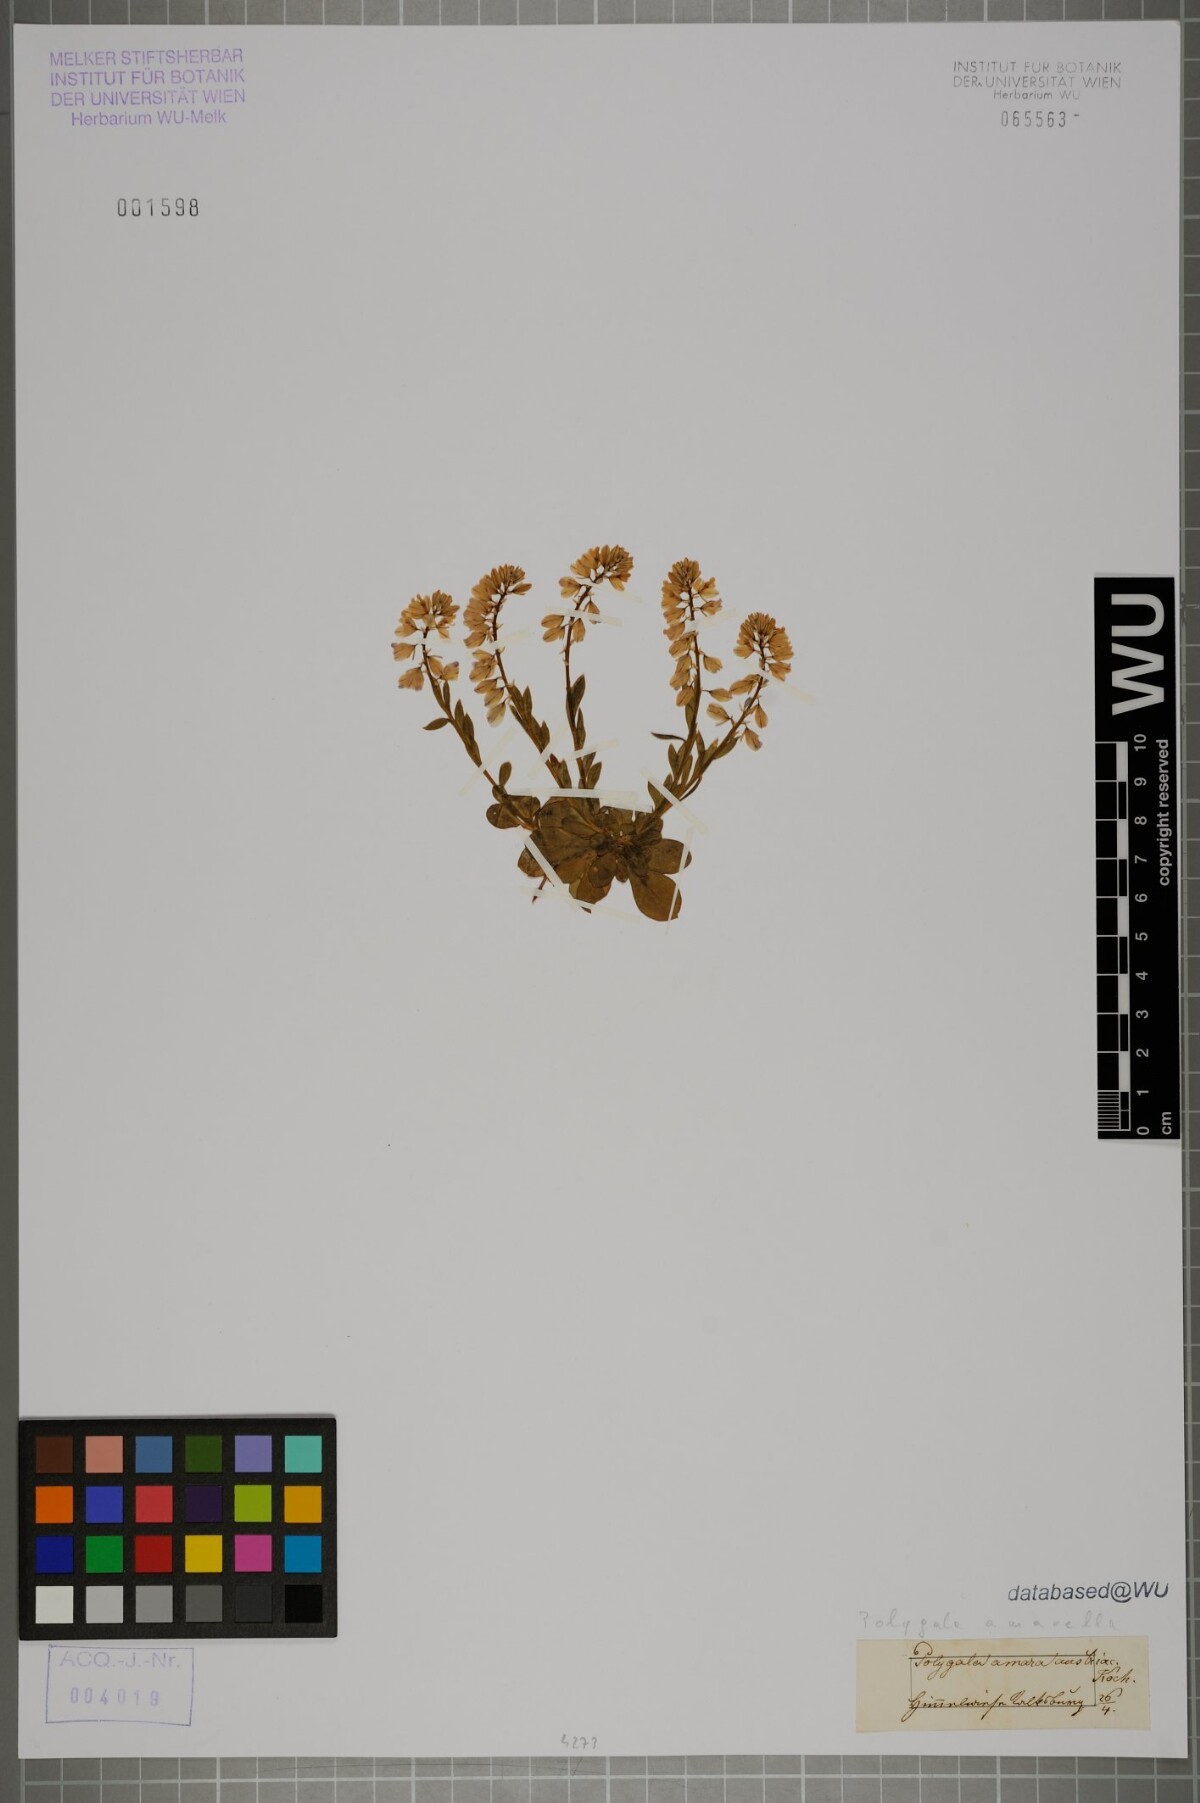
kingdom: Plantae
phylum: Tracheophyta
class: Magnoliopsida
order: Fabales
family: Polygalaceae
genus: Polygala
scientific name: Polygala amarella
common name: Dwarf milkwort
